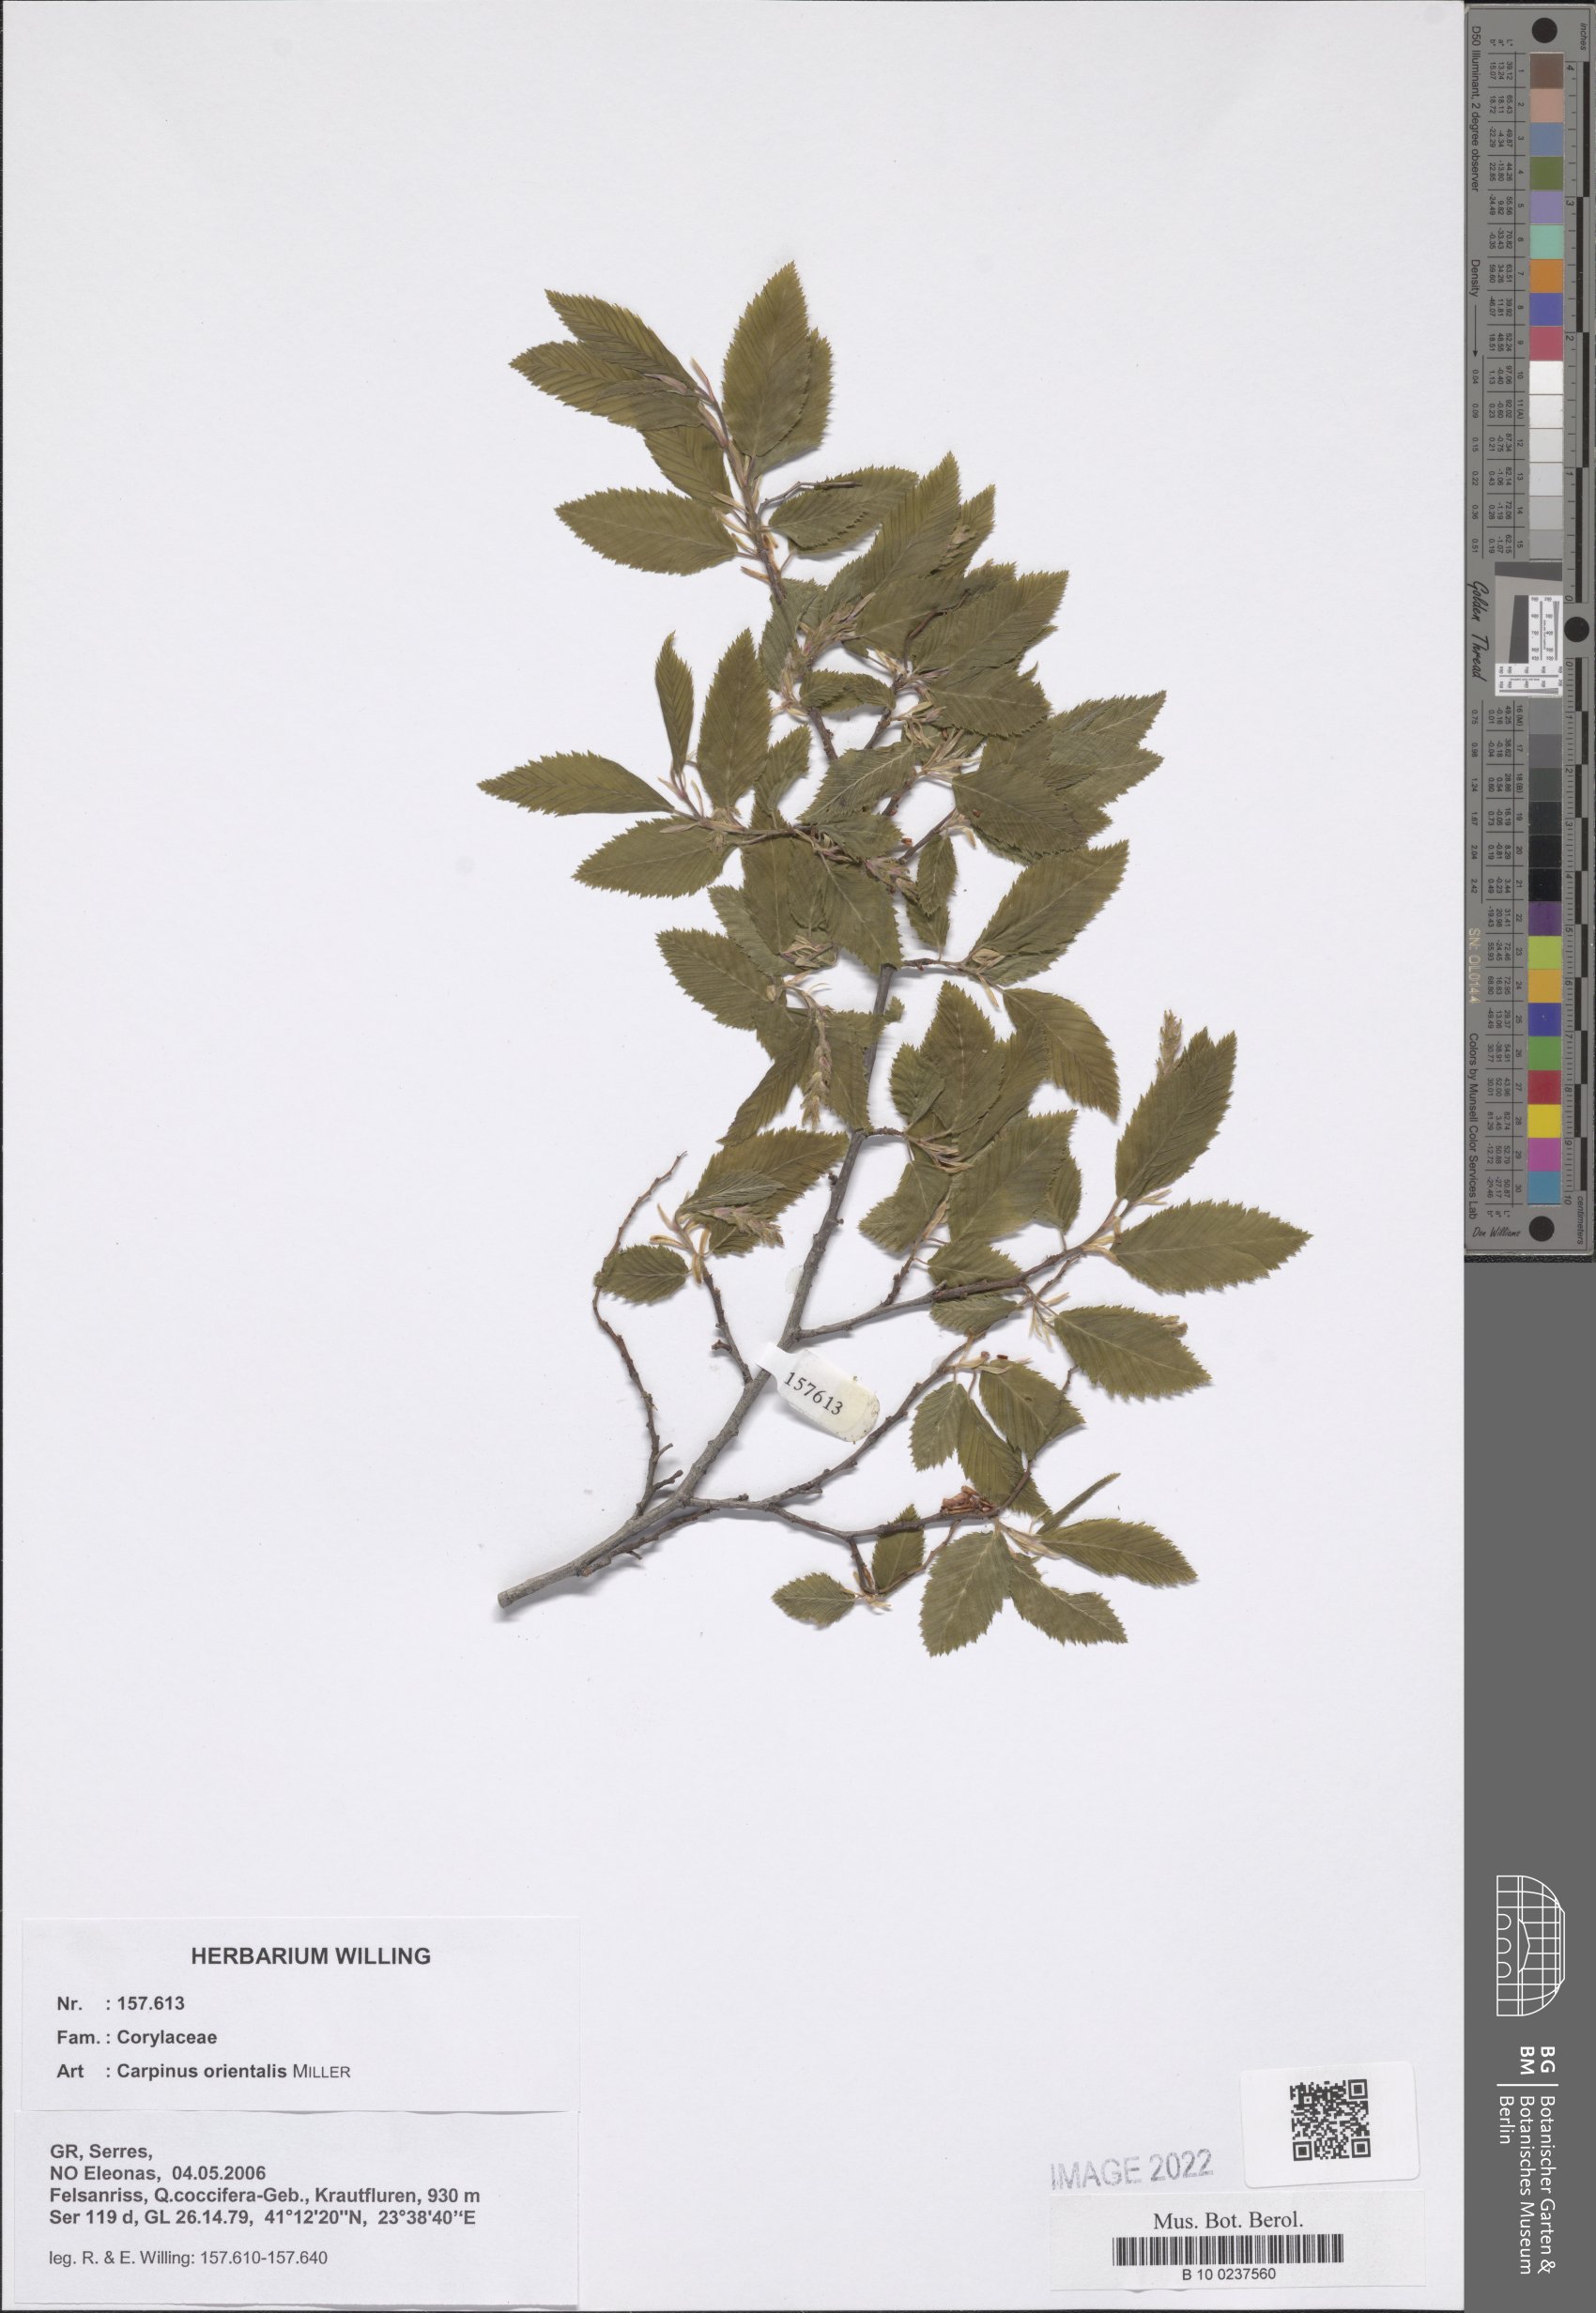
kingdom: Plantae
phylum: Tracheophyta
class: Magnoliopsida
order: Fagales
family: Betulaceae
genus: Carpinus
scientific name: Carpinus orientalis
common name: Eastern hornbeam
